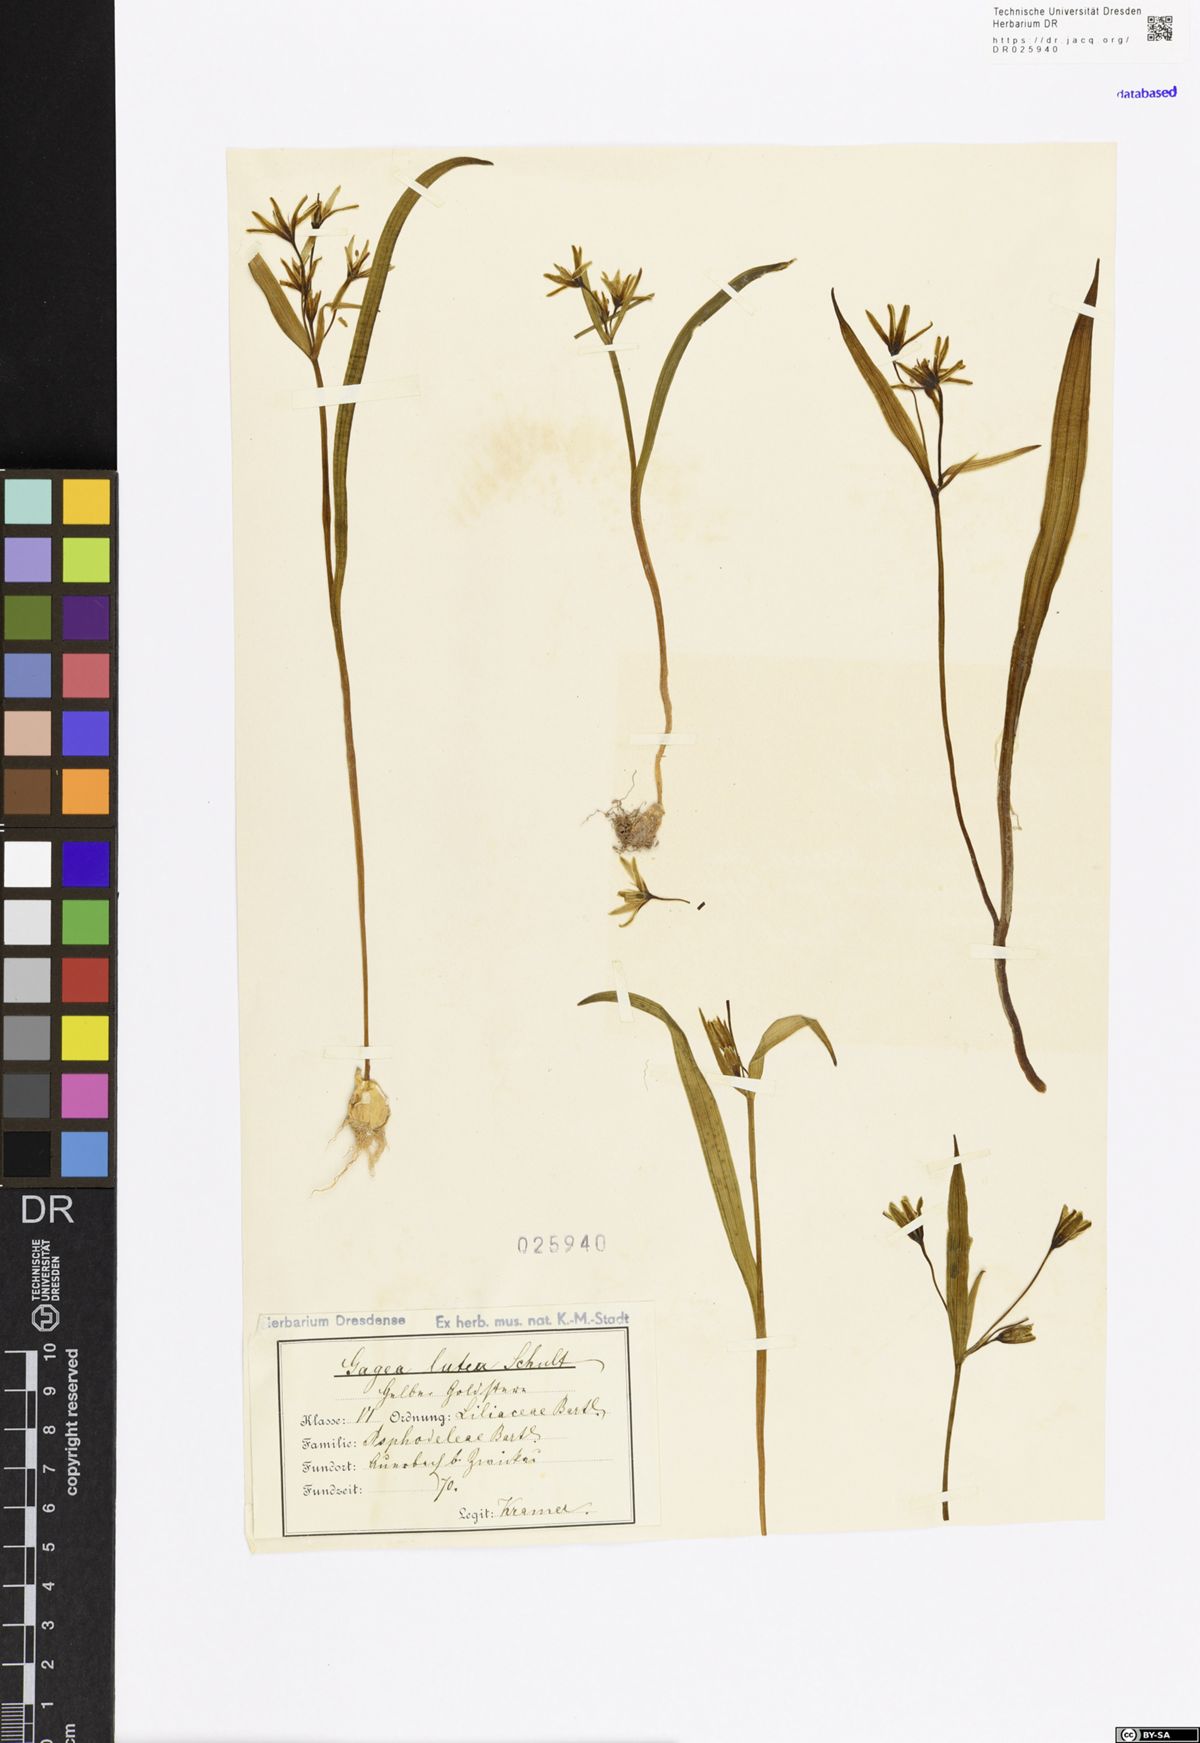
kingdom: Plantae
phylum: Tracheophyta
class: Liliopsida
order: Liliales
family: Liliaceae
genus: Gagea
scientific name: Gagea lutea
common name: Yellow star-of-bethlehem
